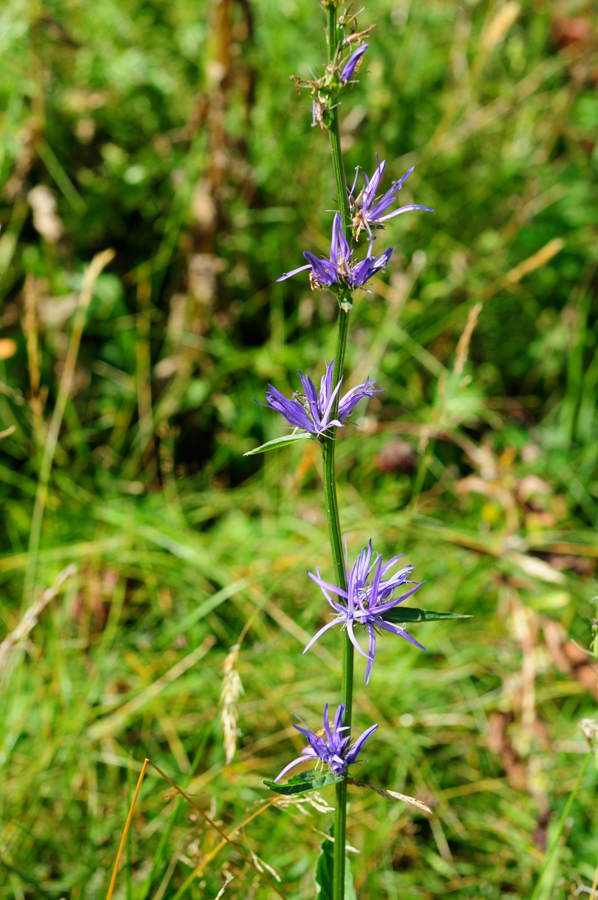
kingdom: Plantae
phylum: Tracheophyta
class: Magnoliopsida
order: Asterales
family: Campanulaceae
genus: Asyneuma
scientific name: Asyneuma amplexicaule
